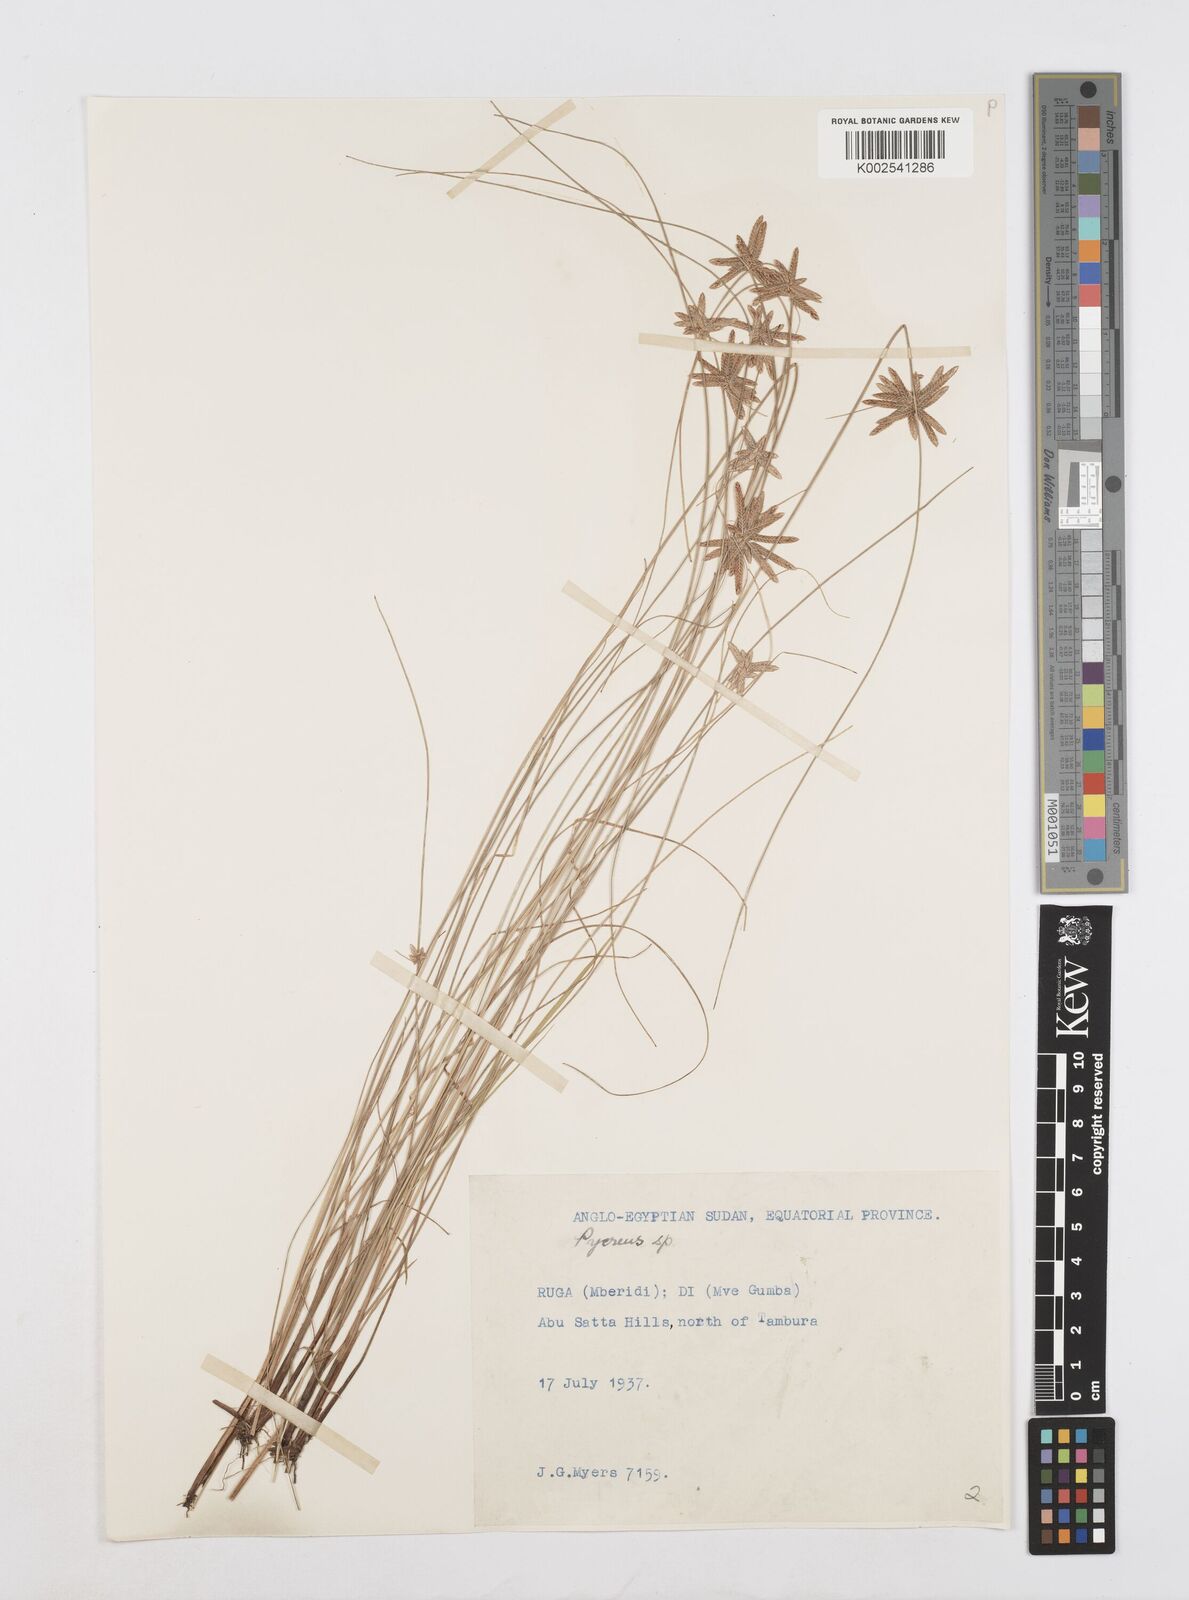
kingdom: Plantae
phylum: Tracheophyta
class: Liliopsida
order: Poales
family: Cyperaceae
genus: Cyperus
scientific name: Cyperus
